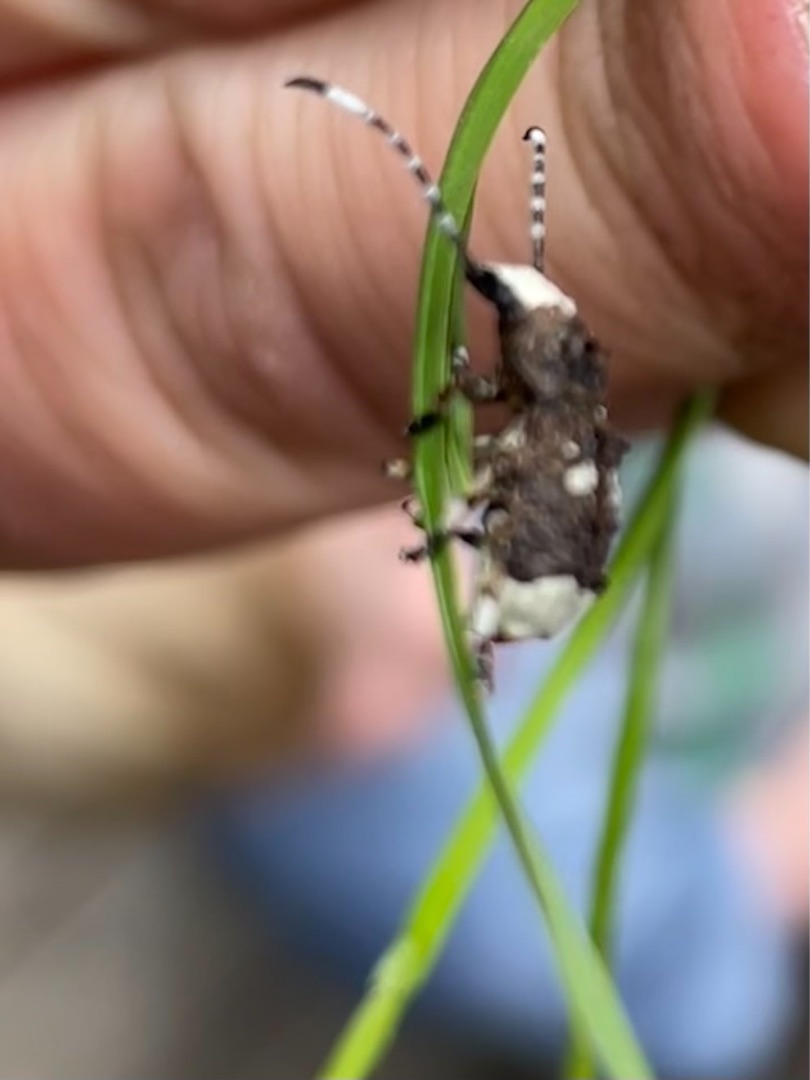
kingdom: Animalia
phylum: Arthropoda
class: Insecta
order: Coleoptera
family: Anthribidae
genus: Platystomos
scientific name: Platystomos albinus
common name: Hvidhovedet bredsnudebille
